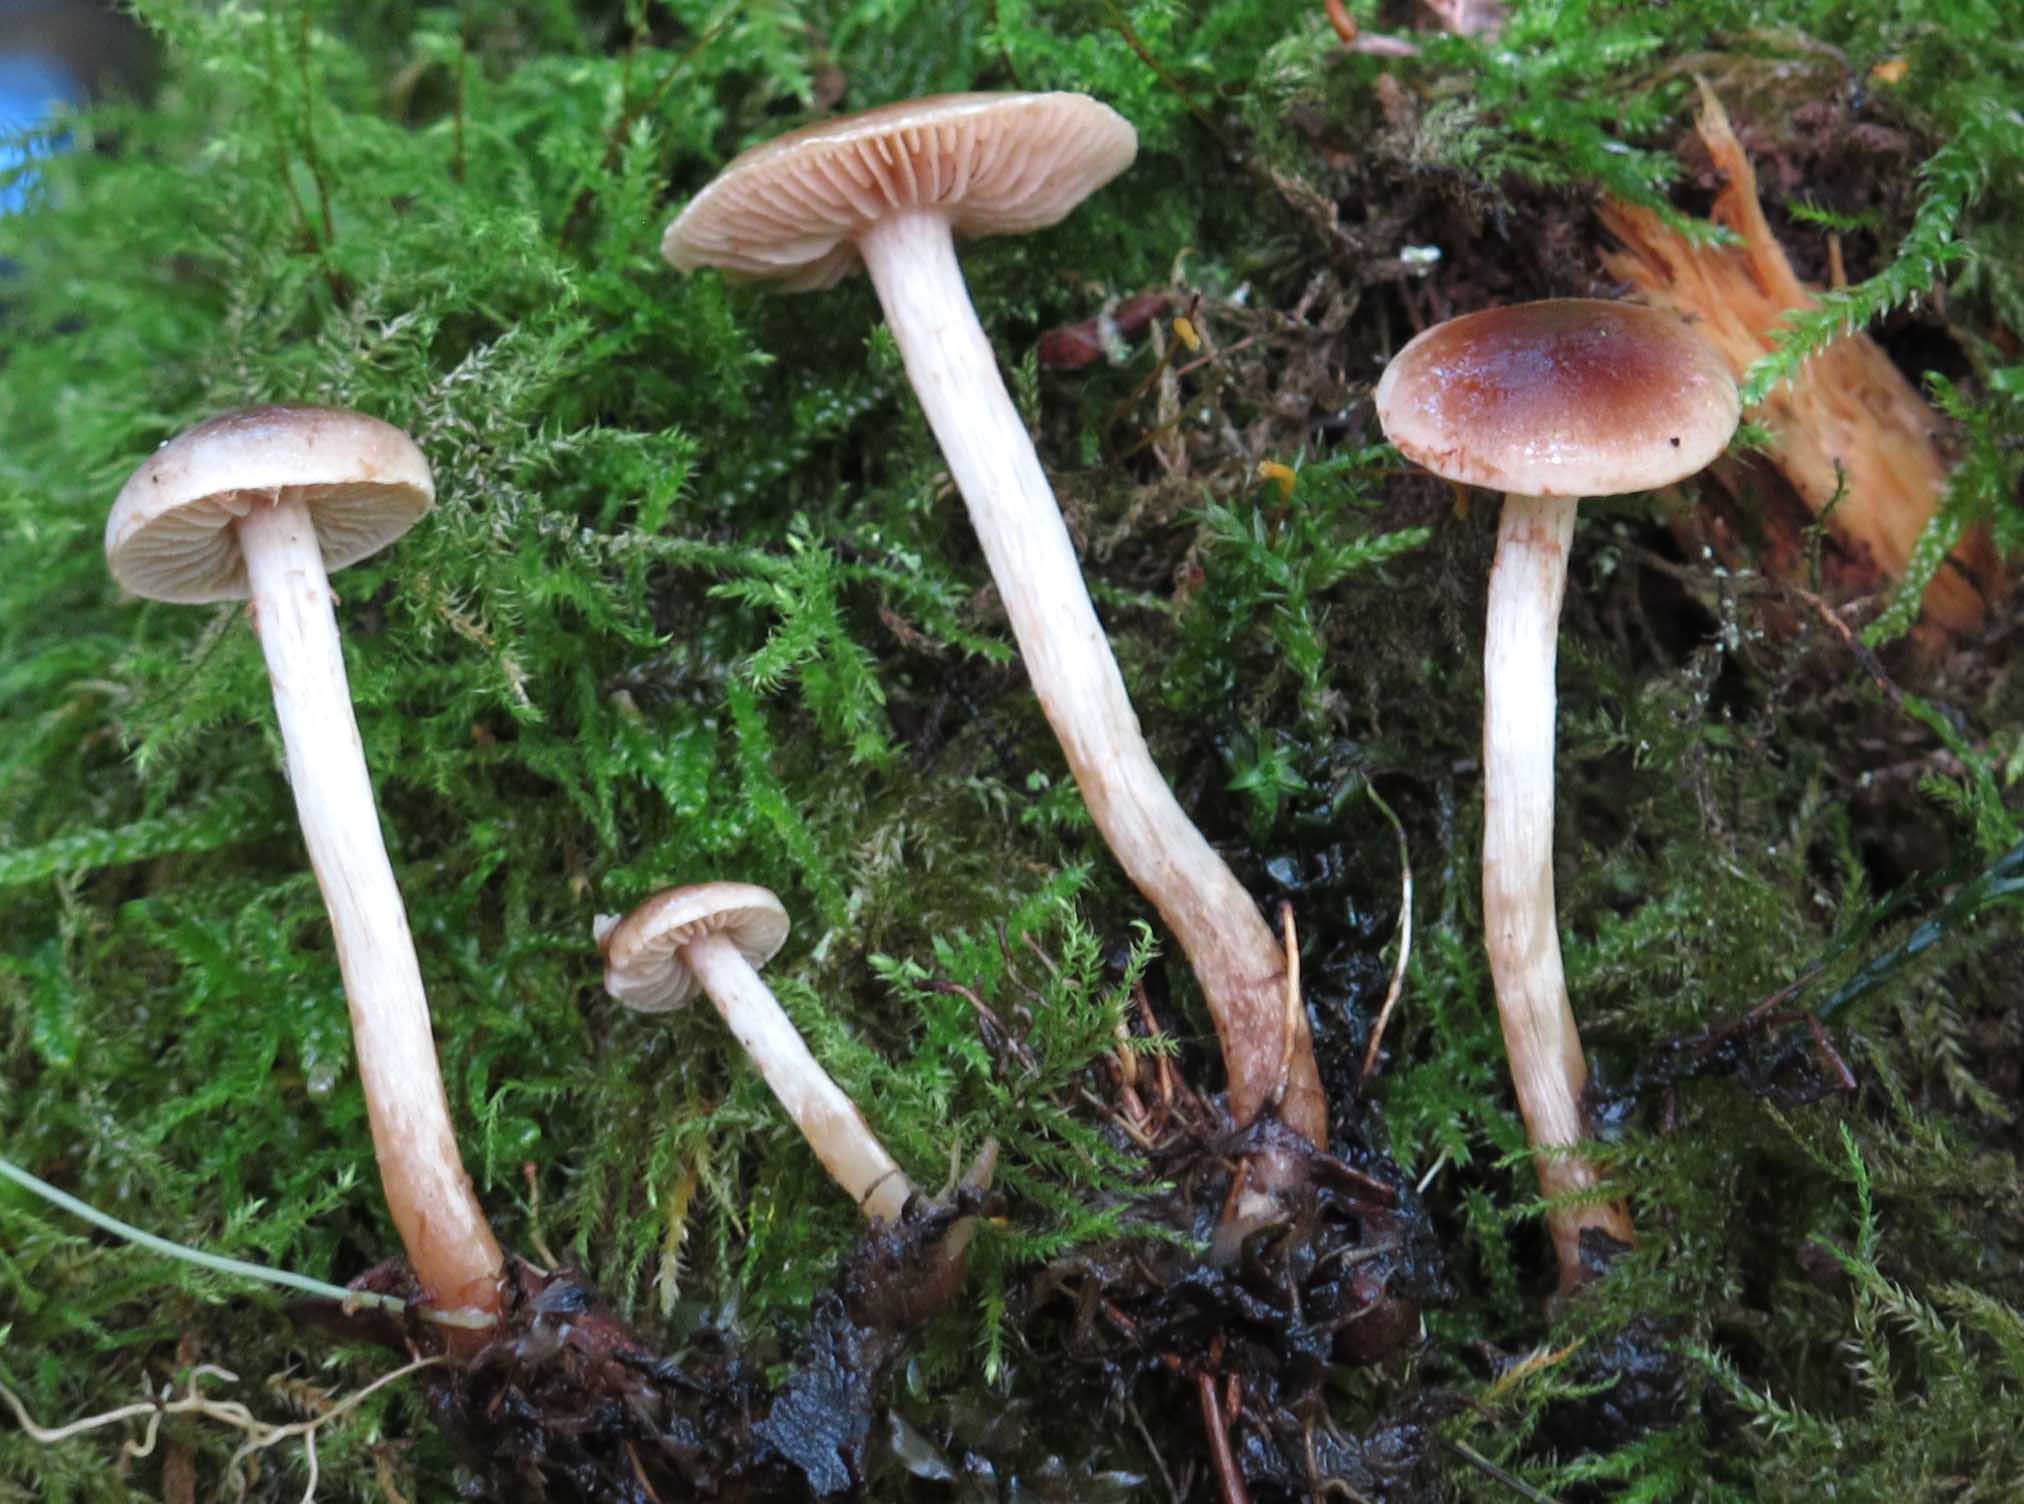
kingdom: Fungi
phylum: Basidiomycota
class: Agaricomycetes
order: Agaricales
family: Hymenogastraceae
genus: Hebeloma
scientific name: Hebeloma nigellum
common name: sortbrun tåreblad
